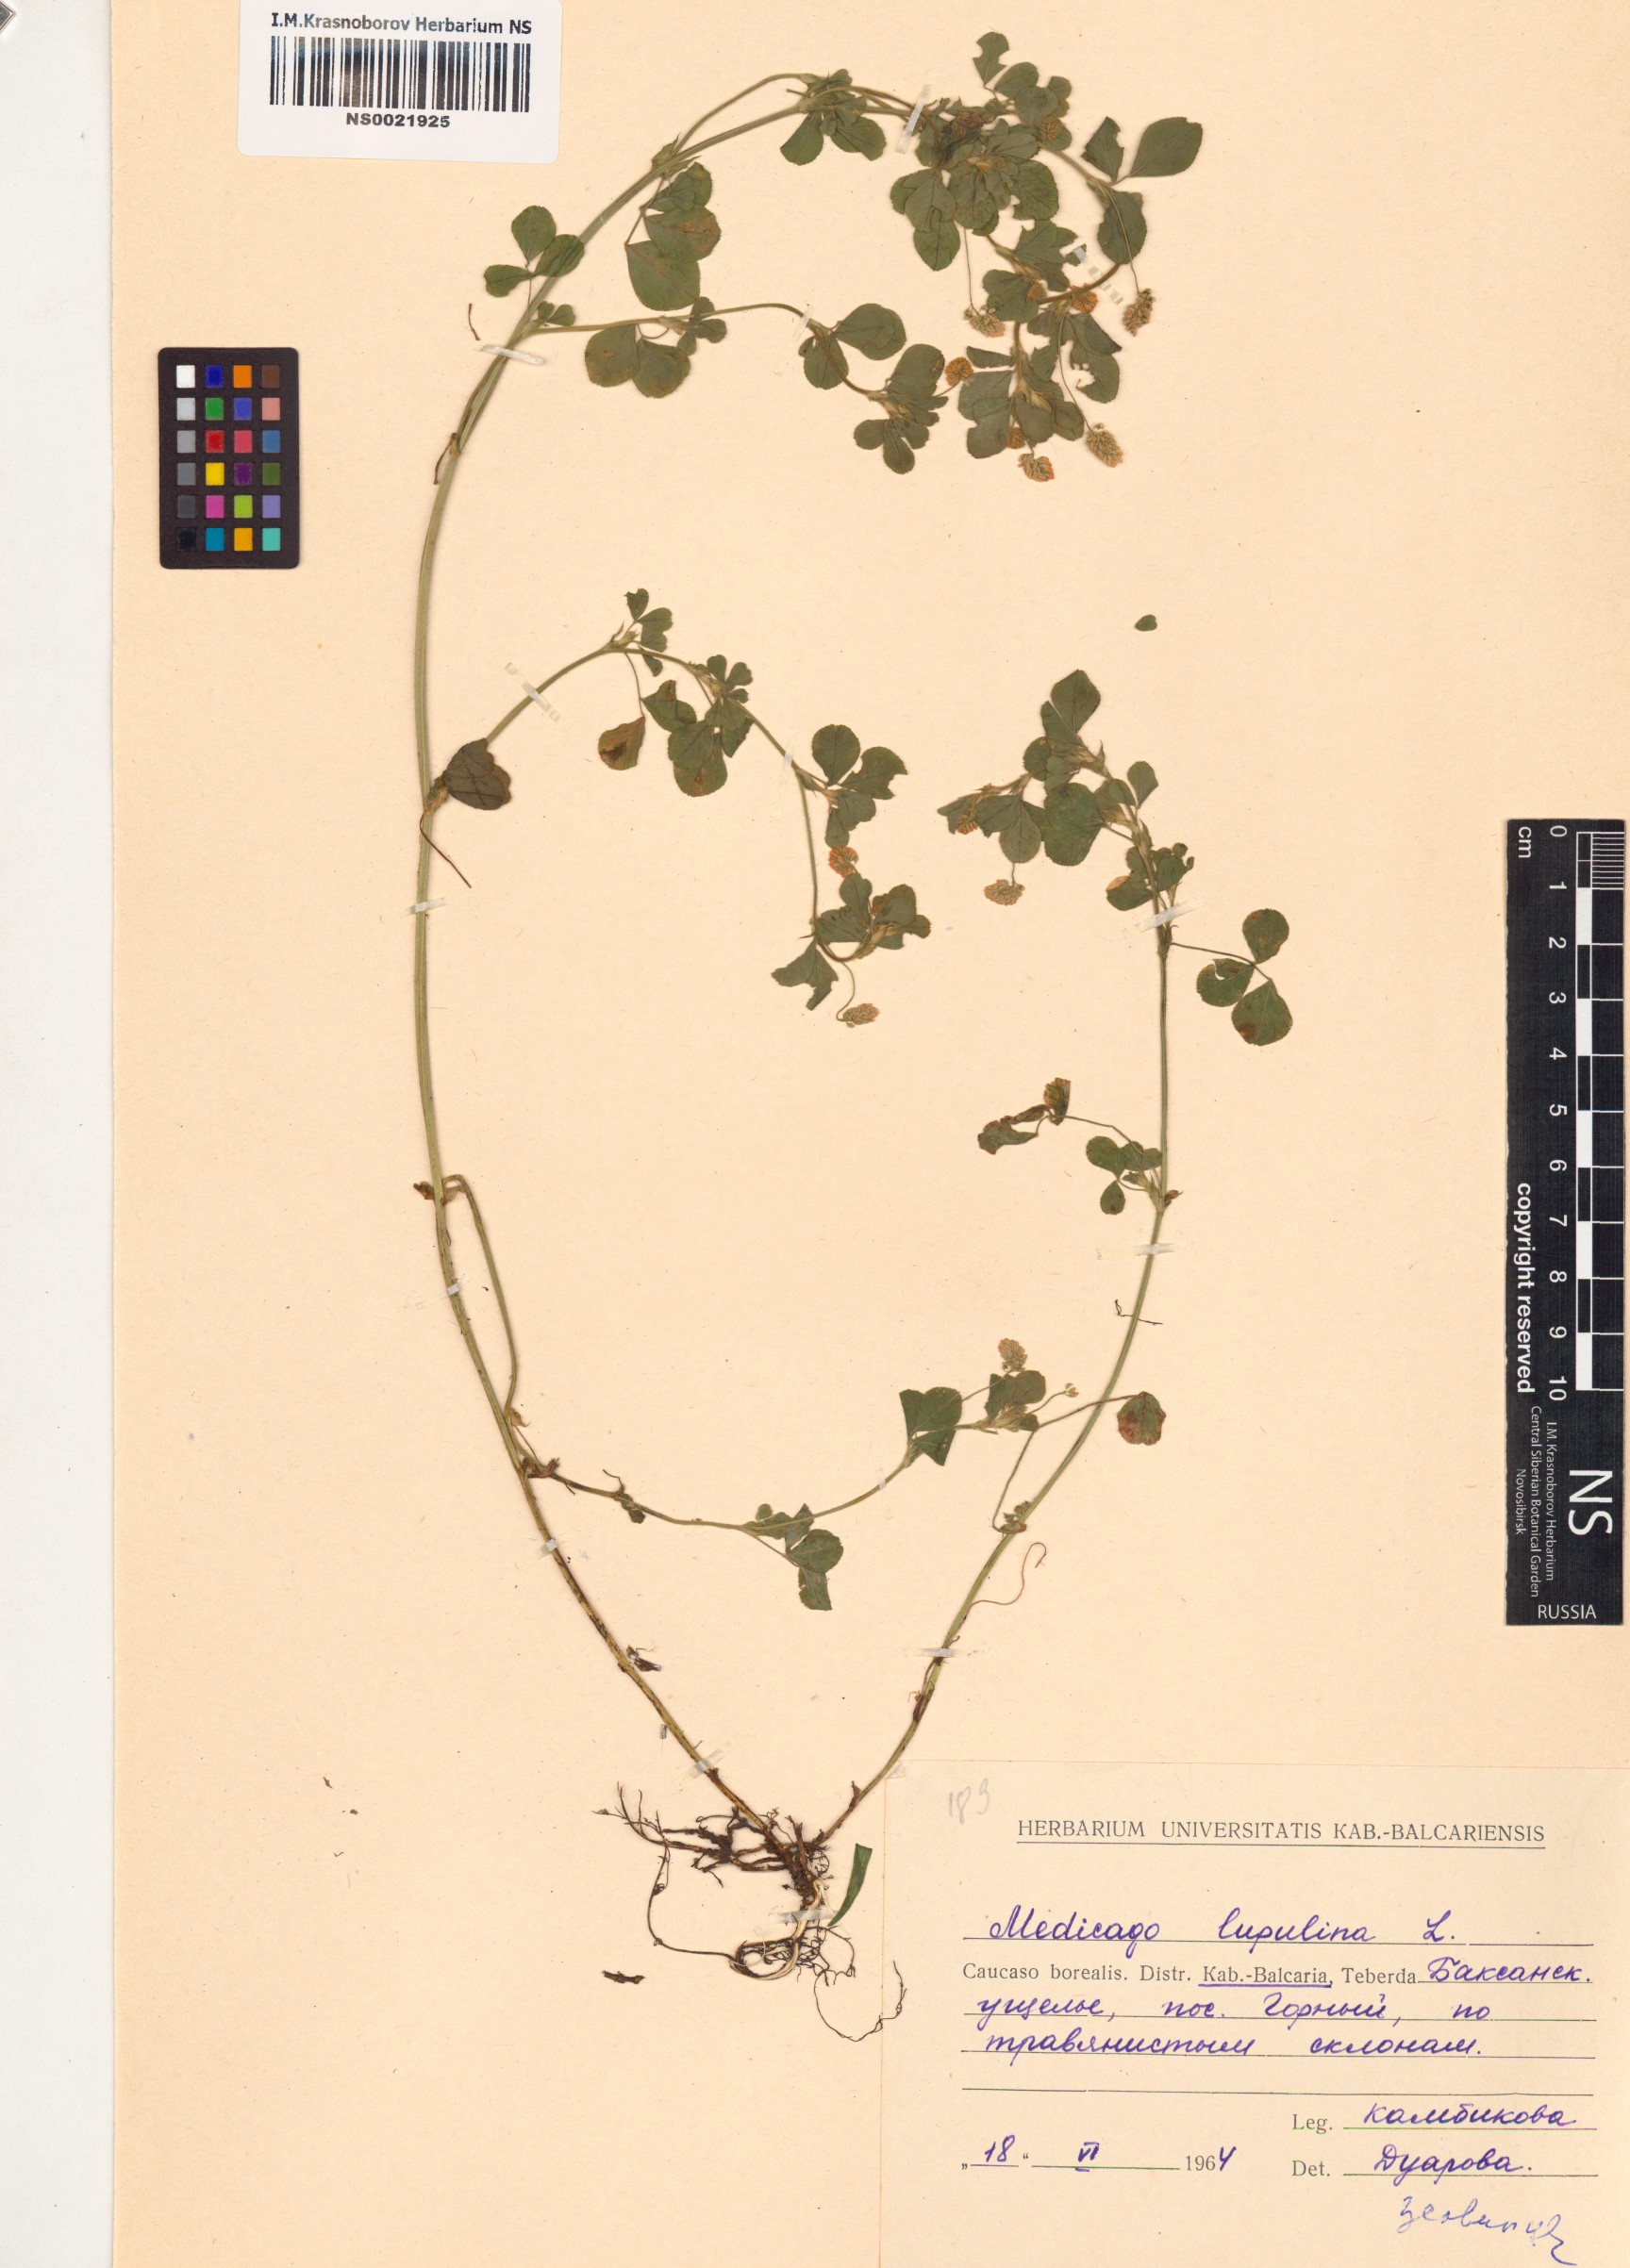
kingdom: Plantae
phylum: Tracheophyta
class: Magnoliopsida
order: Fabales
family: Fabaceae
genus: Medicago
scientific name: Medicago lupulina
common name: Black medick
